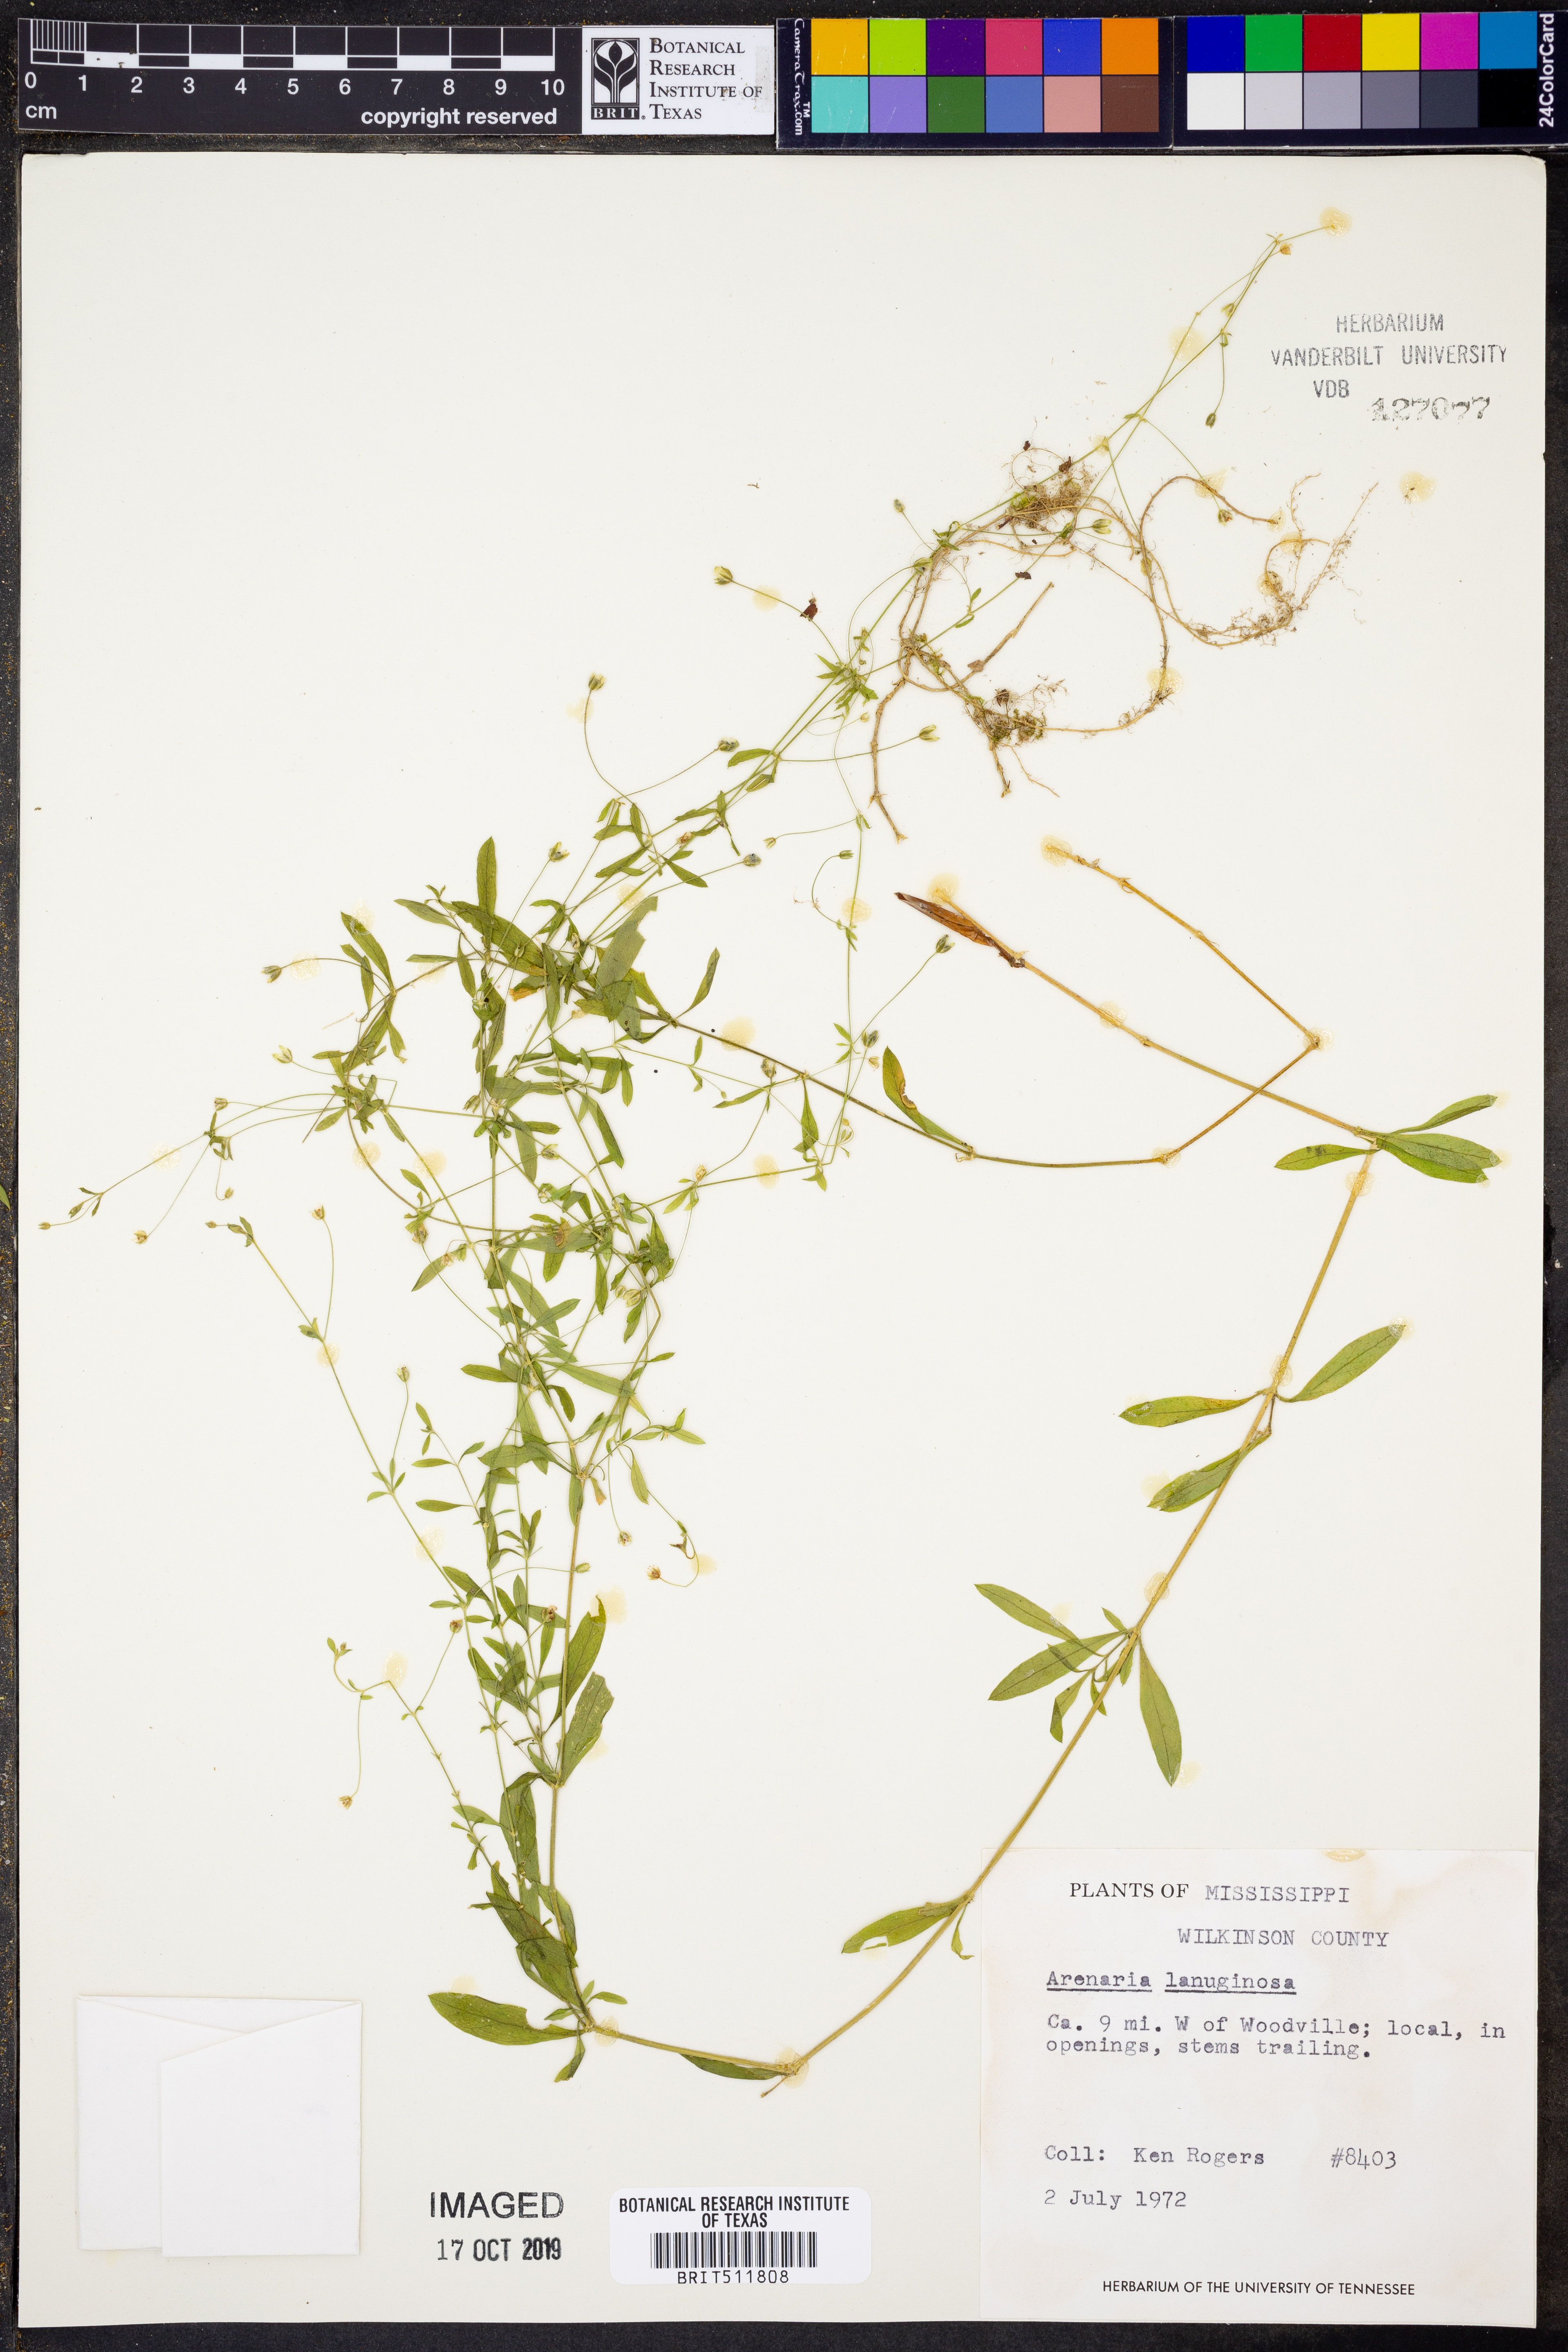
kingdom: Plantae
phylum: Tracheophyta
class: Magnoliopsida
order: Caryophyllales
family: Caryophyllaceae
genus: Arenaria
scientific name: Arenaria lanuginosa
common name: Spread sandwort
